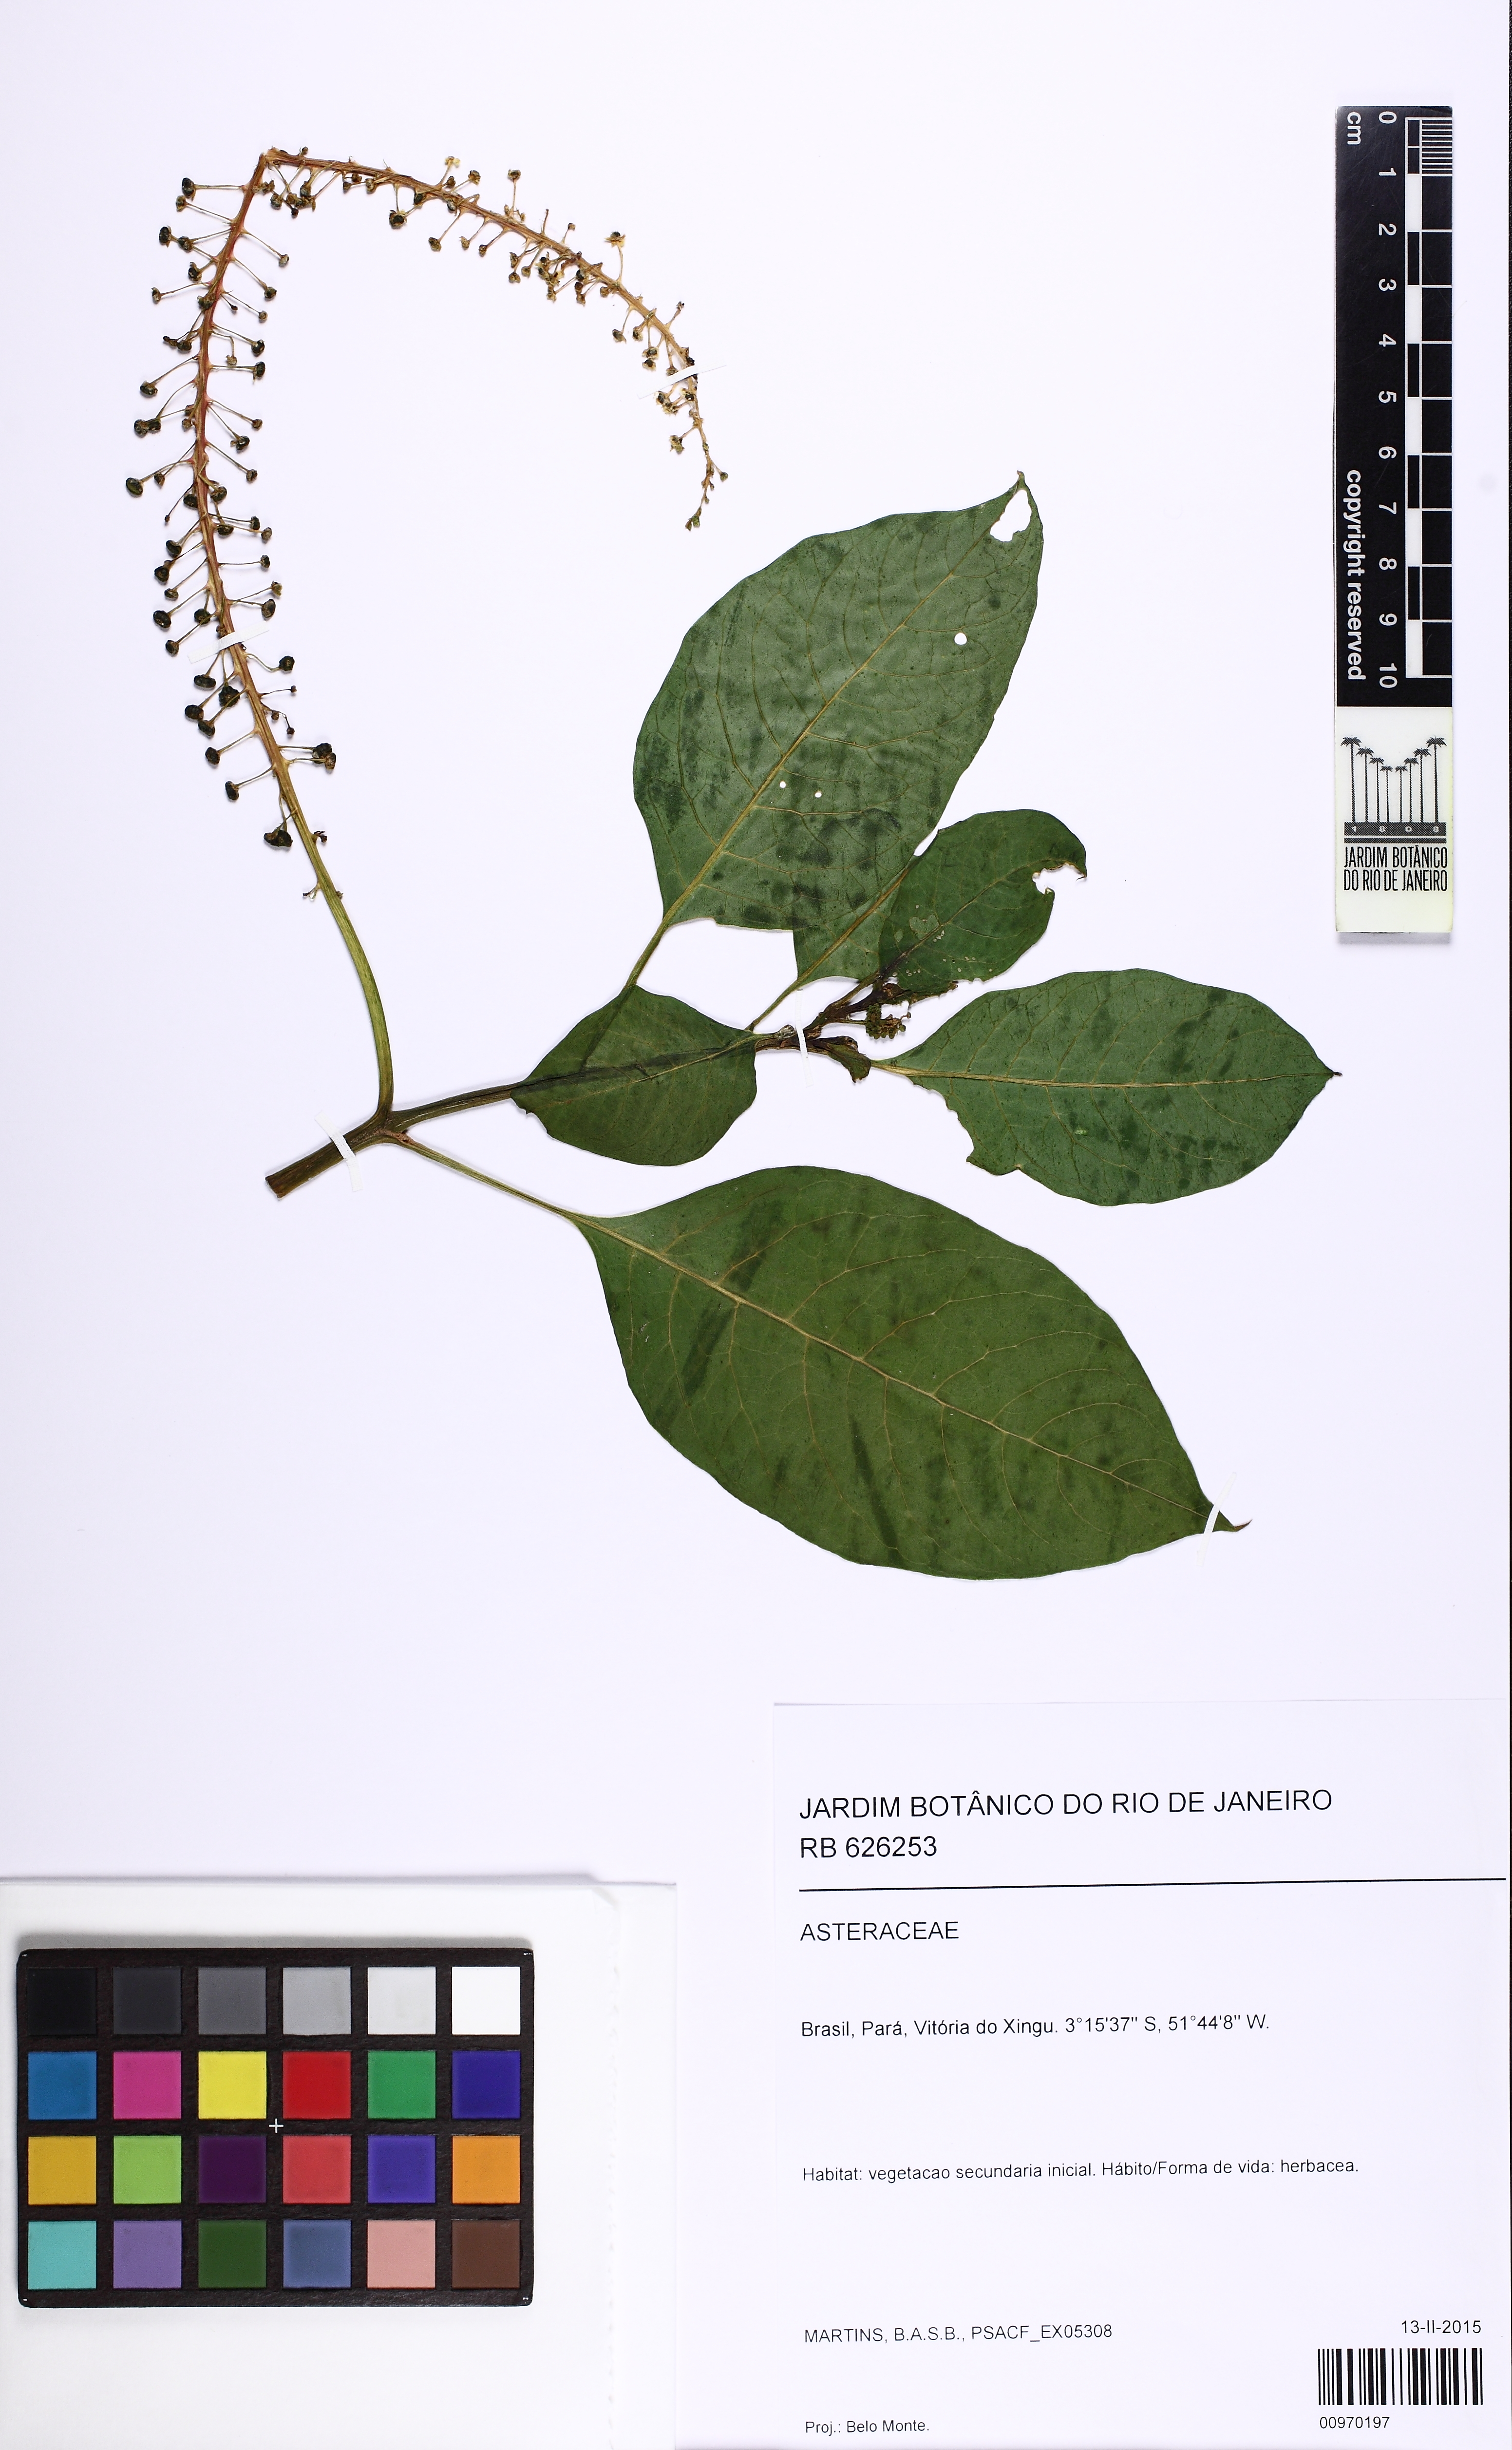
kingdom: Plantae
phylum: Tracheophyta
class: Magnoliopsida
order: Caryophyllales
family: Phytolaccaceae
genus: Phytolacca
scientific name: Phytolacca
